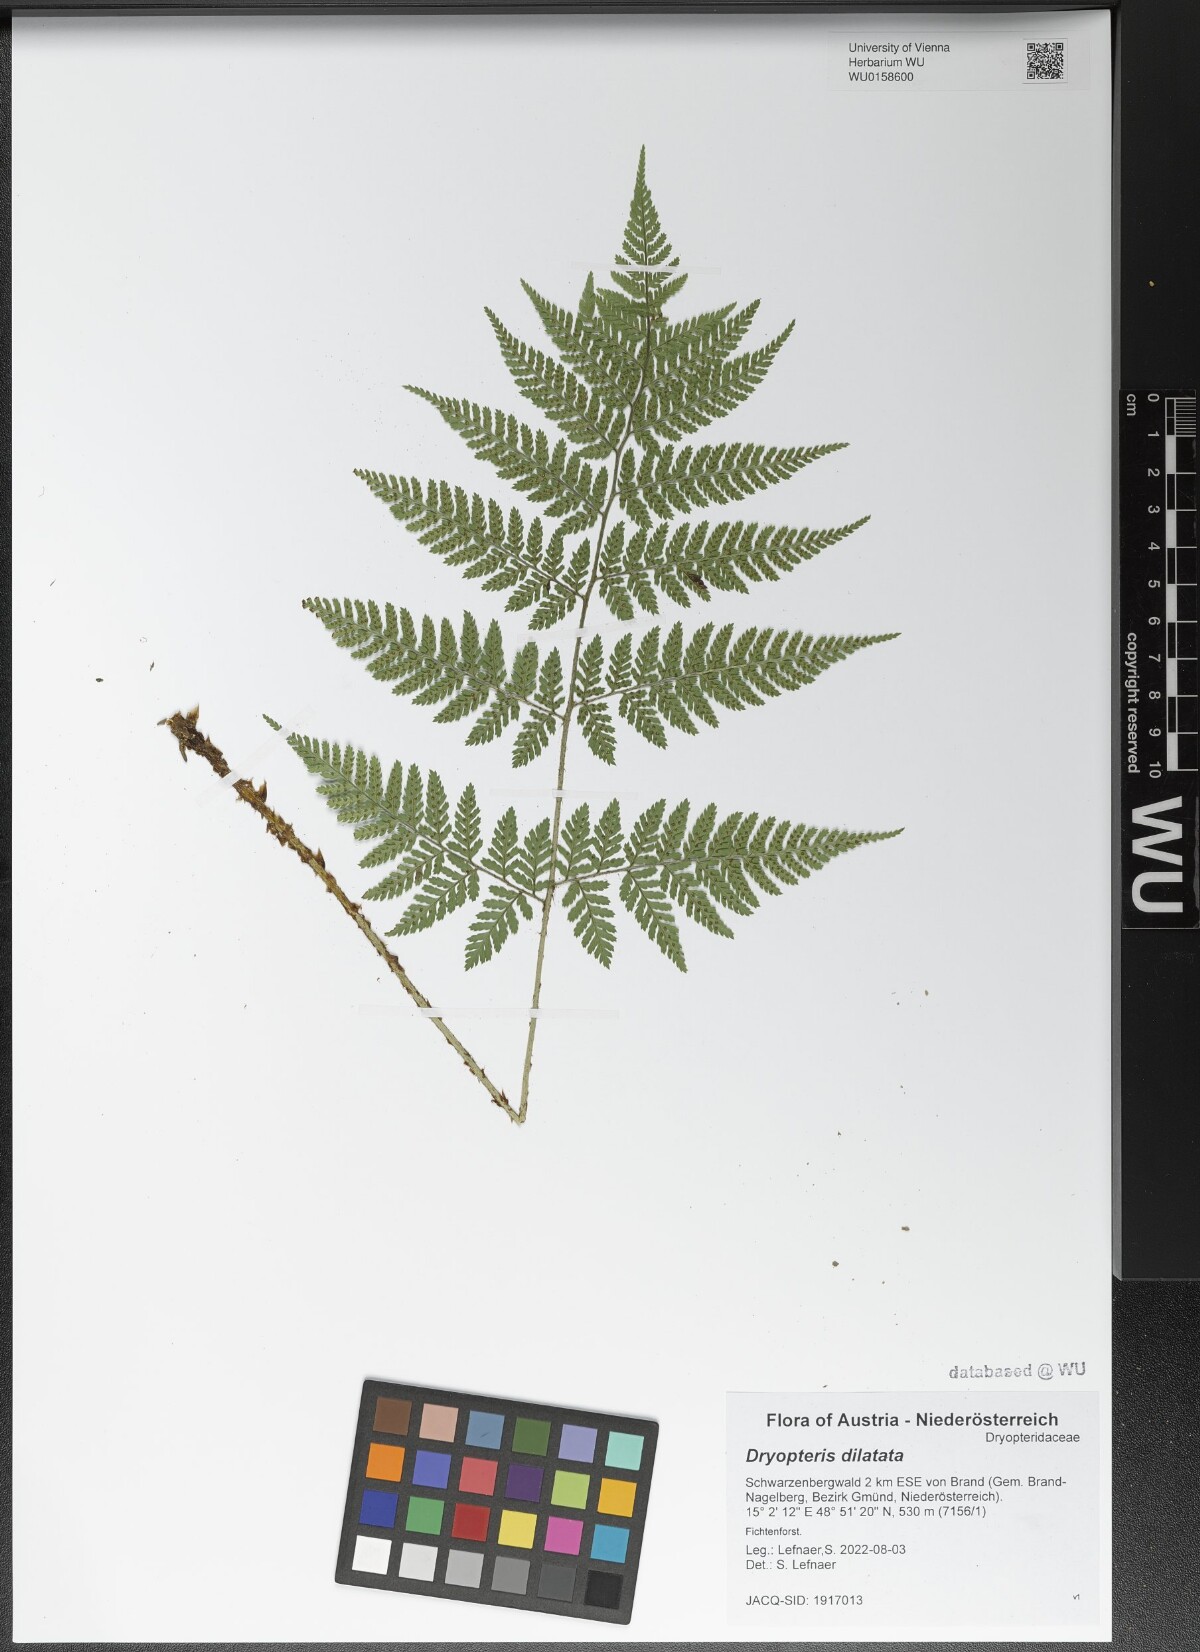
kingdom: Plantae
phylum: Tracheophyta
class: Polypodiopsida
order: Polypodiales
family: Dryopteridaceae
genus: Dryopteris
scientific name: Dryopteris dilatata
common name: Broad buckler-fern
